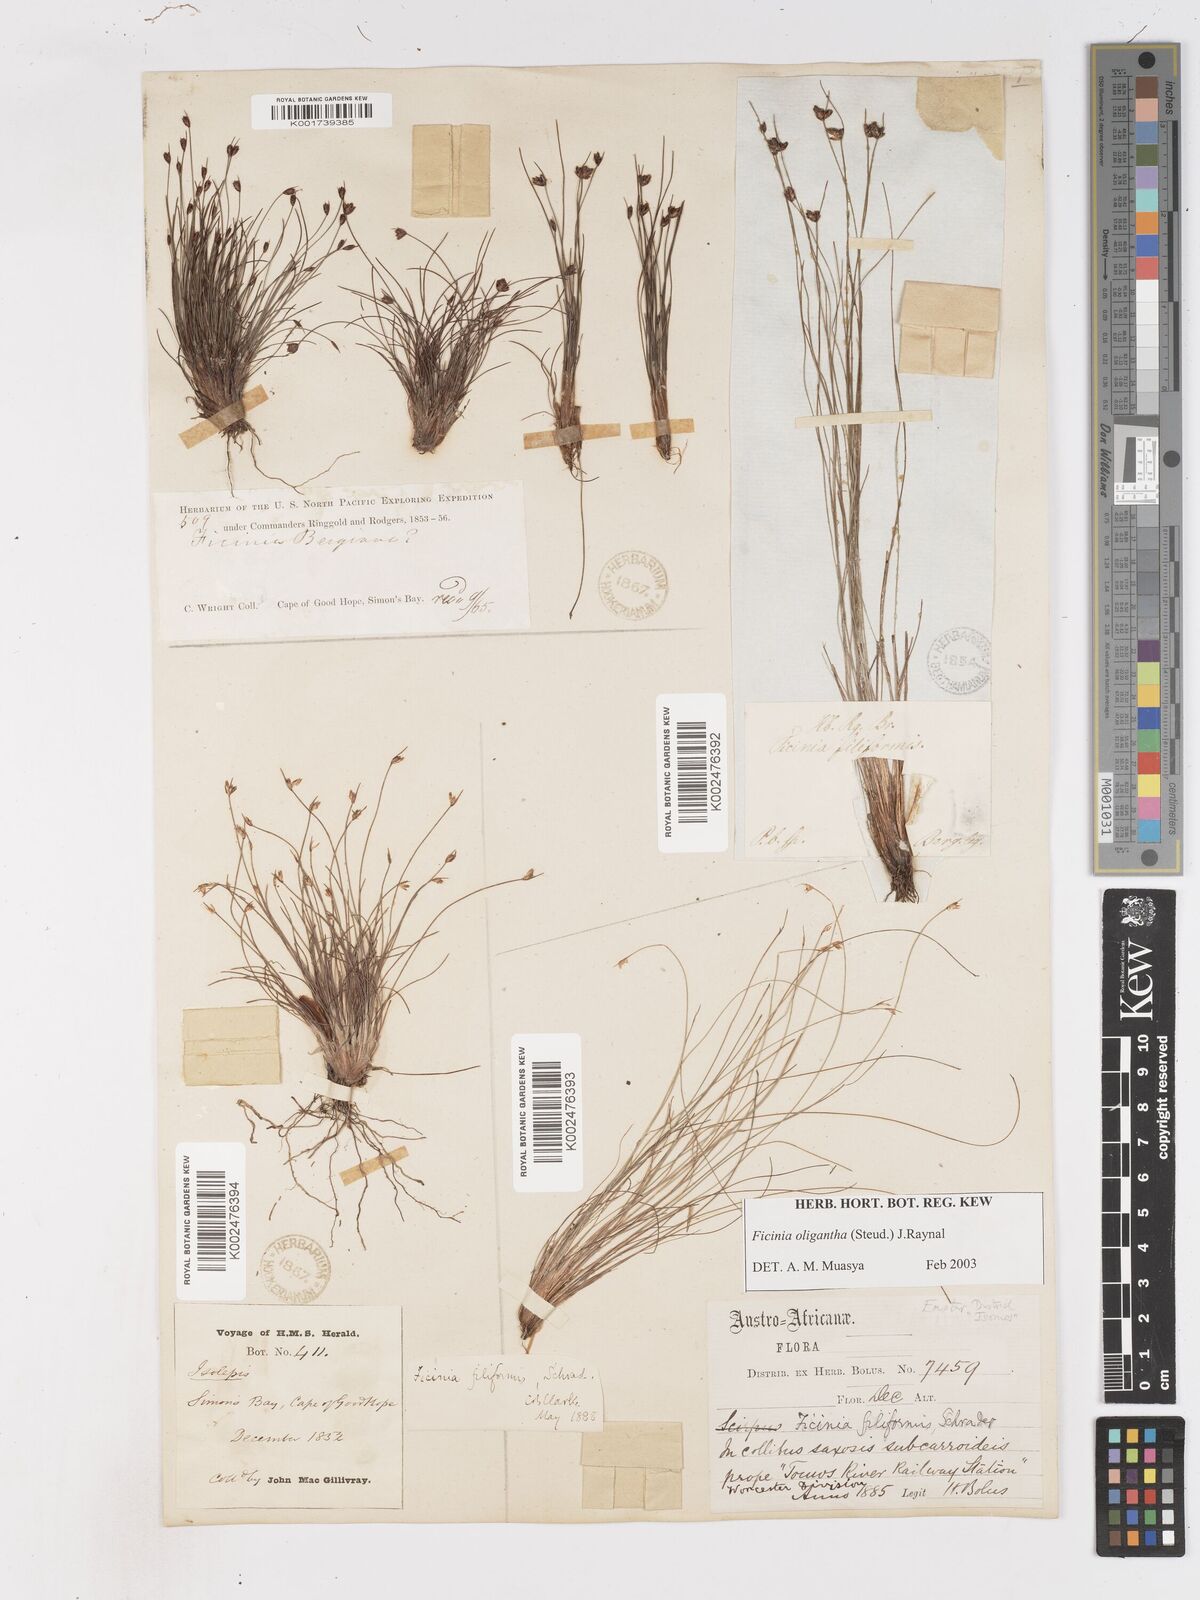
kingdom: Plantae
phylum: Tracheophyta
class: Liliopsida
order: Poales
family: Cyperaceae
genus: Ficinia
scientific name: Ficinia oligantha
